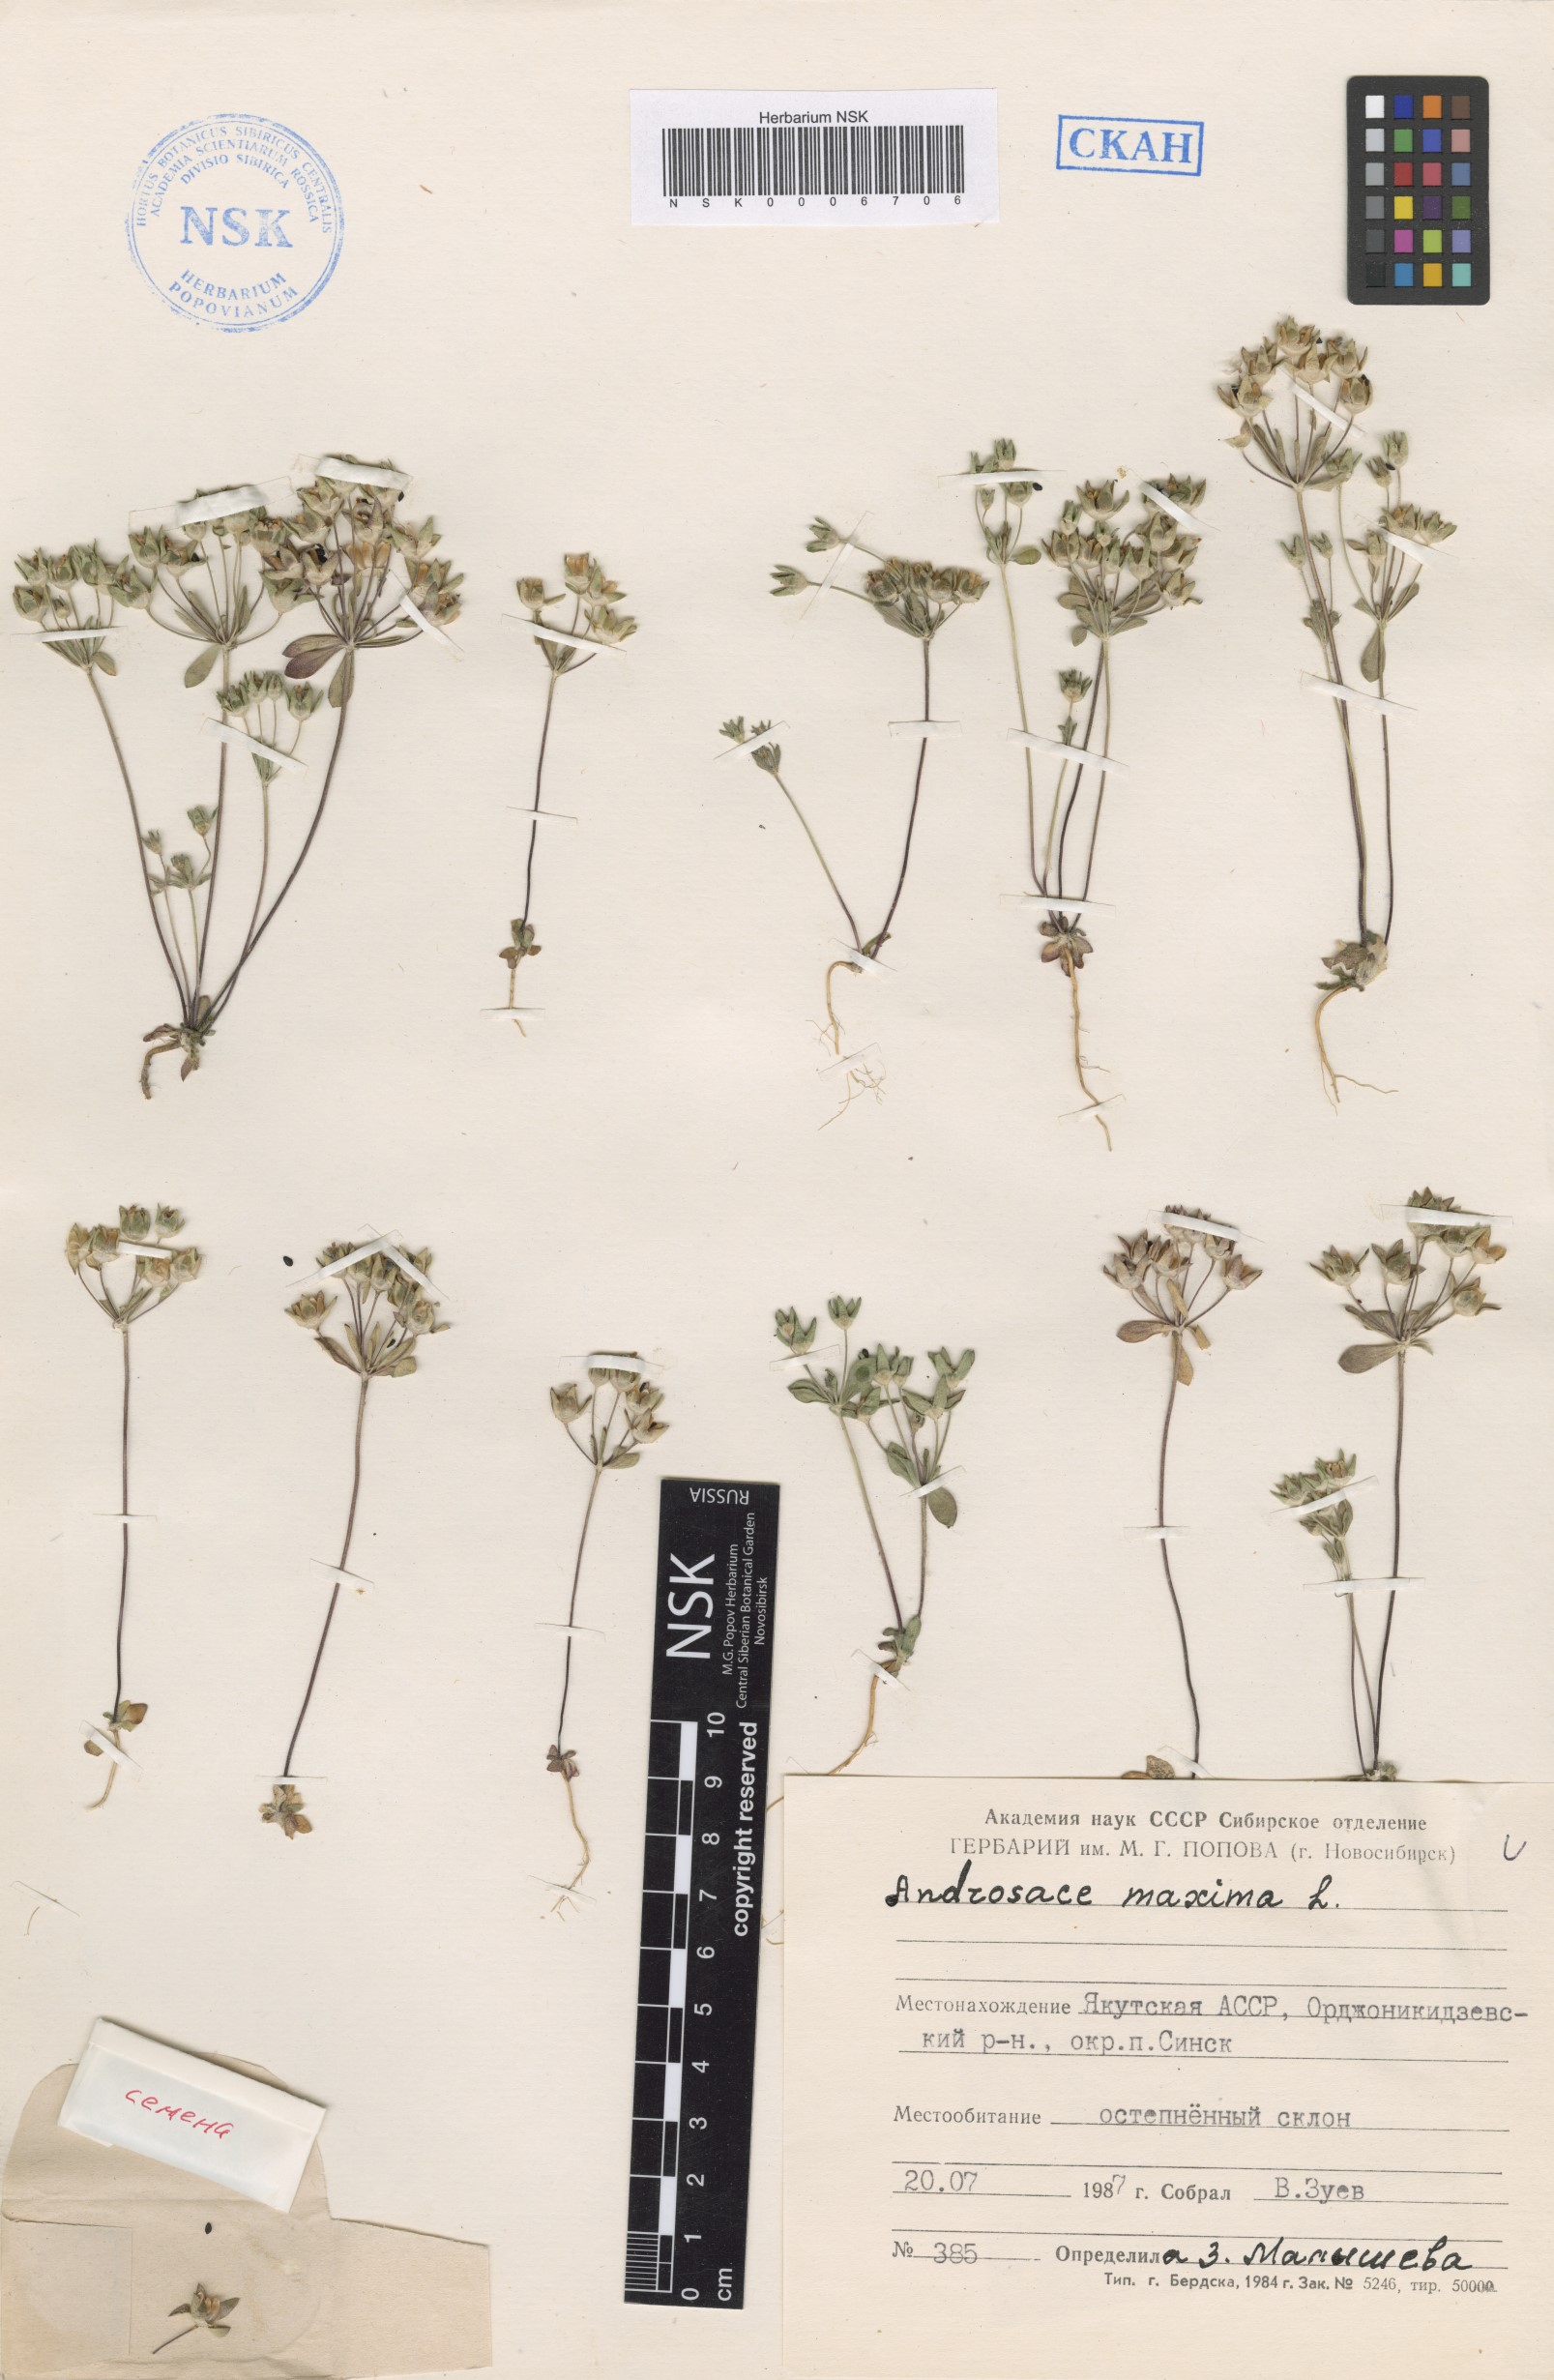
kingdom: Plantae
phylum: Tracheophyta
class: Magnoliopsida
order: Ericales
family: Primulaceae
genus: Androsace
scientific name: Androsace maxima
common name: Annual androsace
